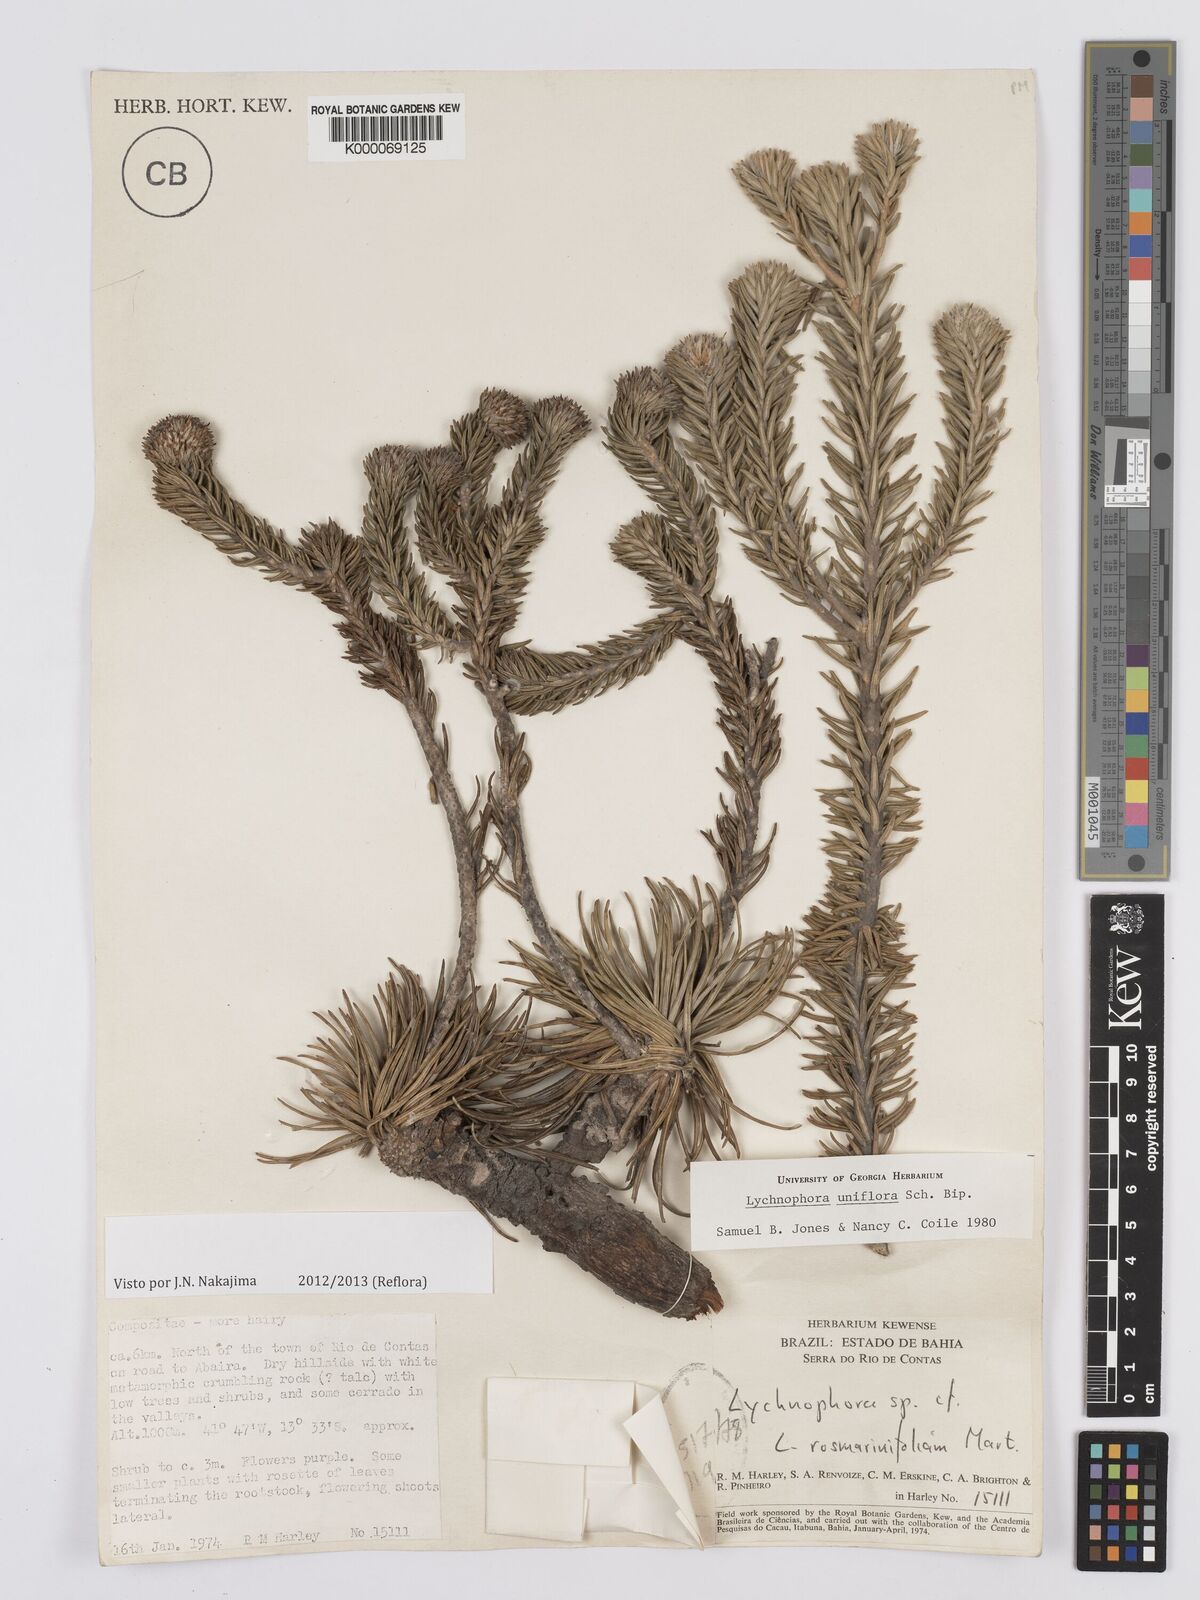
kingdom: Plantae
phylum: Tracheophyta
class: Magnoliopsida
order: Asterales
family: Asteraceae
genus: Lychnophora
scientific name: Lychnophora uniflora
